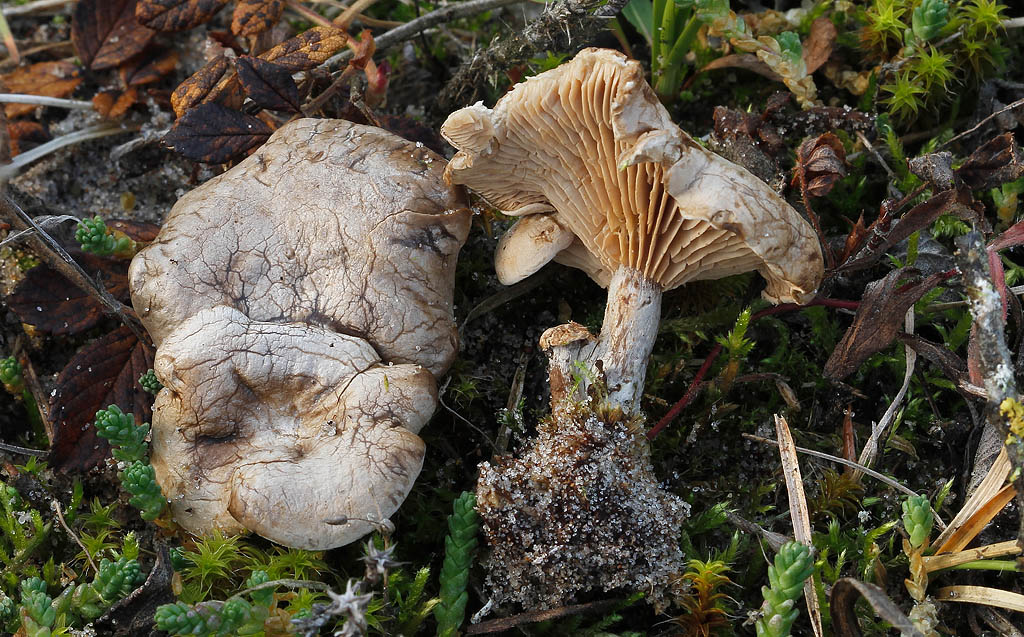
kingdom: Fungi
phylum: Basidiomycota
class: Agaricomycetes
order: Agaricales
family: Entolomataceae
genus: Clitopilus
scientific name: Clitopilus caelatus
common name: gråbrun troldhat
